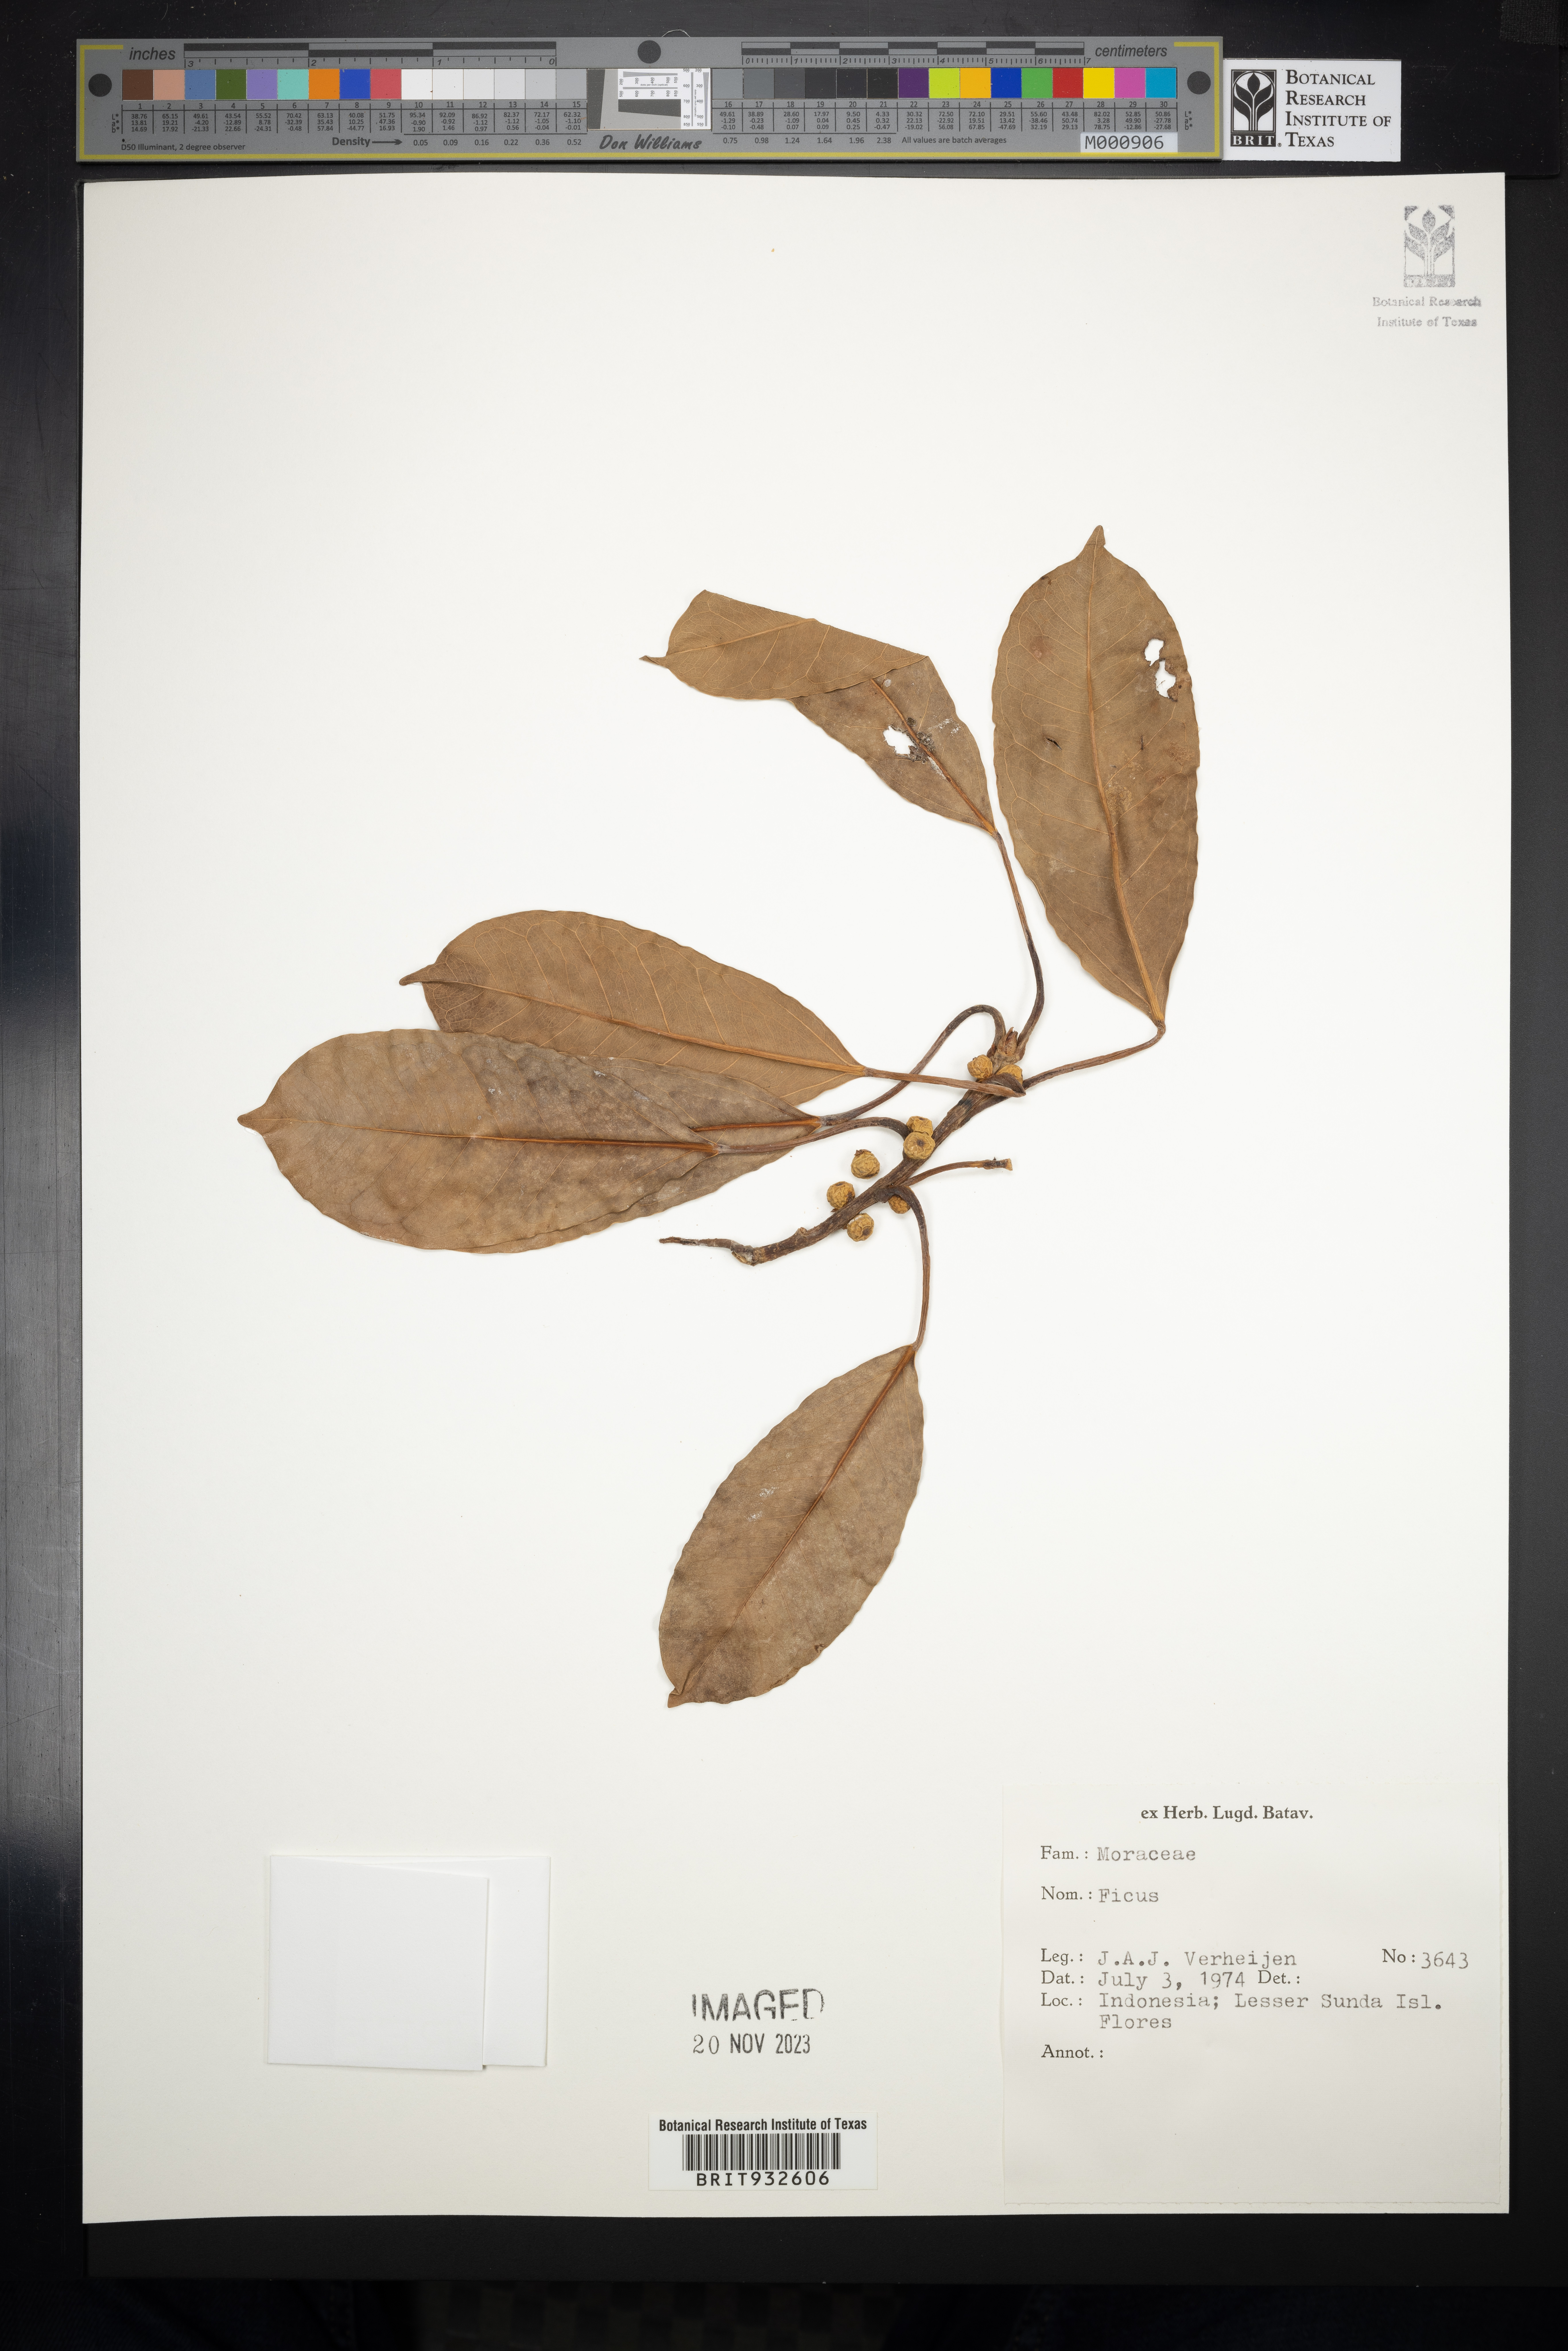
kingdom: Plantae
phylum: Tracheophyta
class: Magnoliopsida
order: Rosales
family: Moraceae
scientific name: Moraceae
